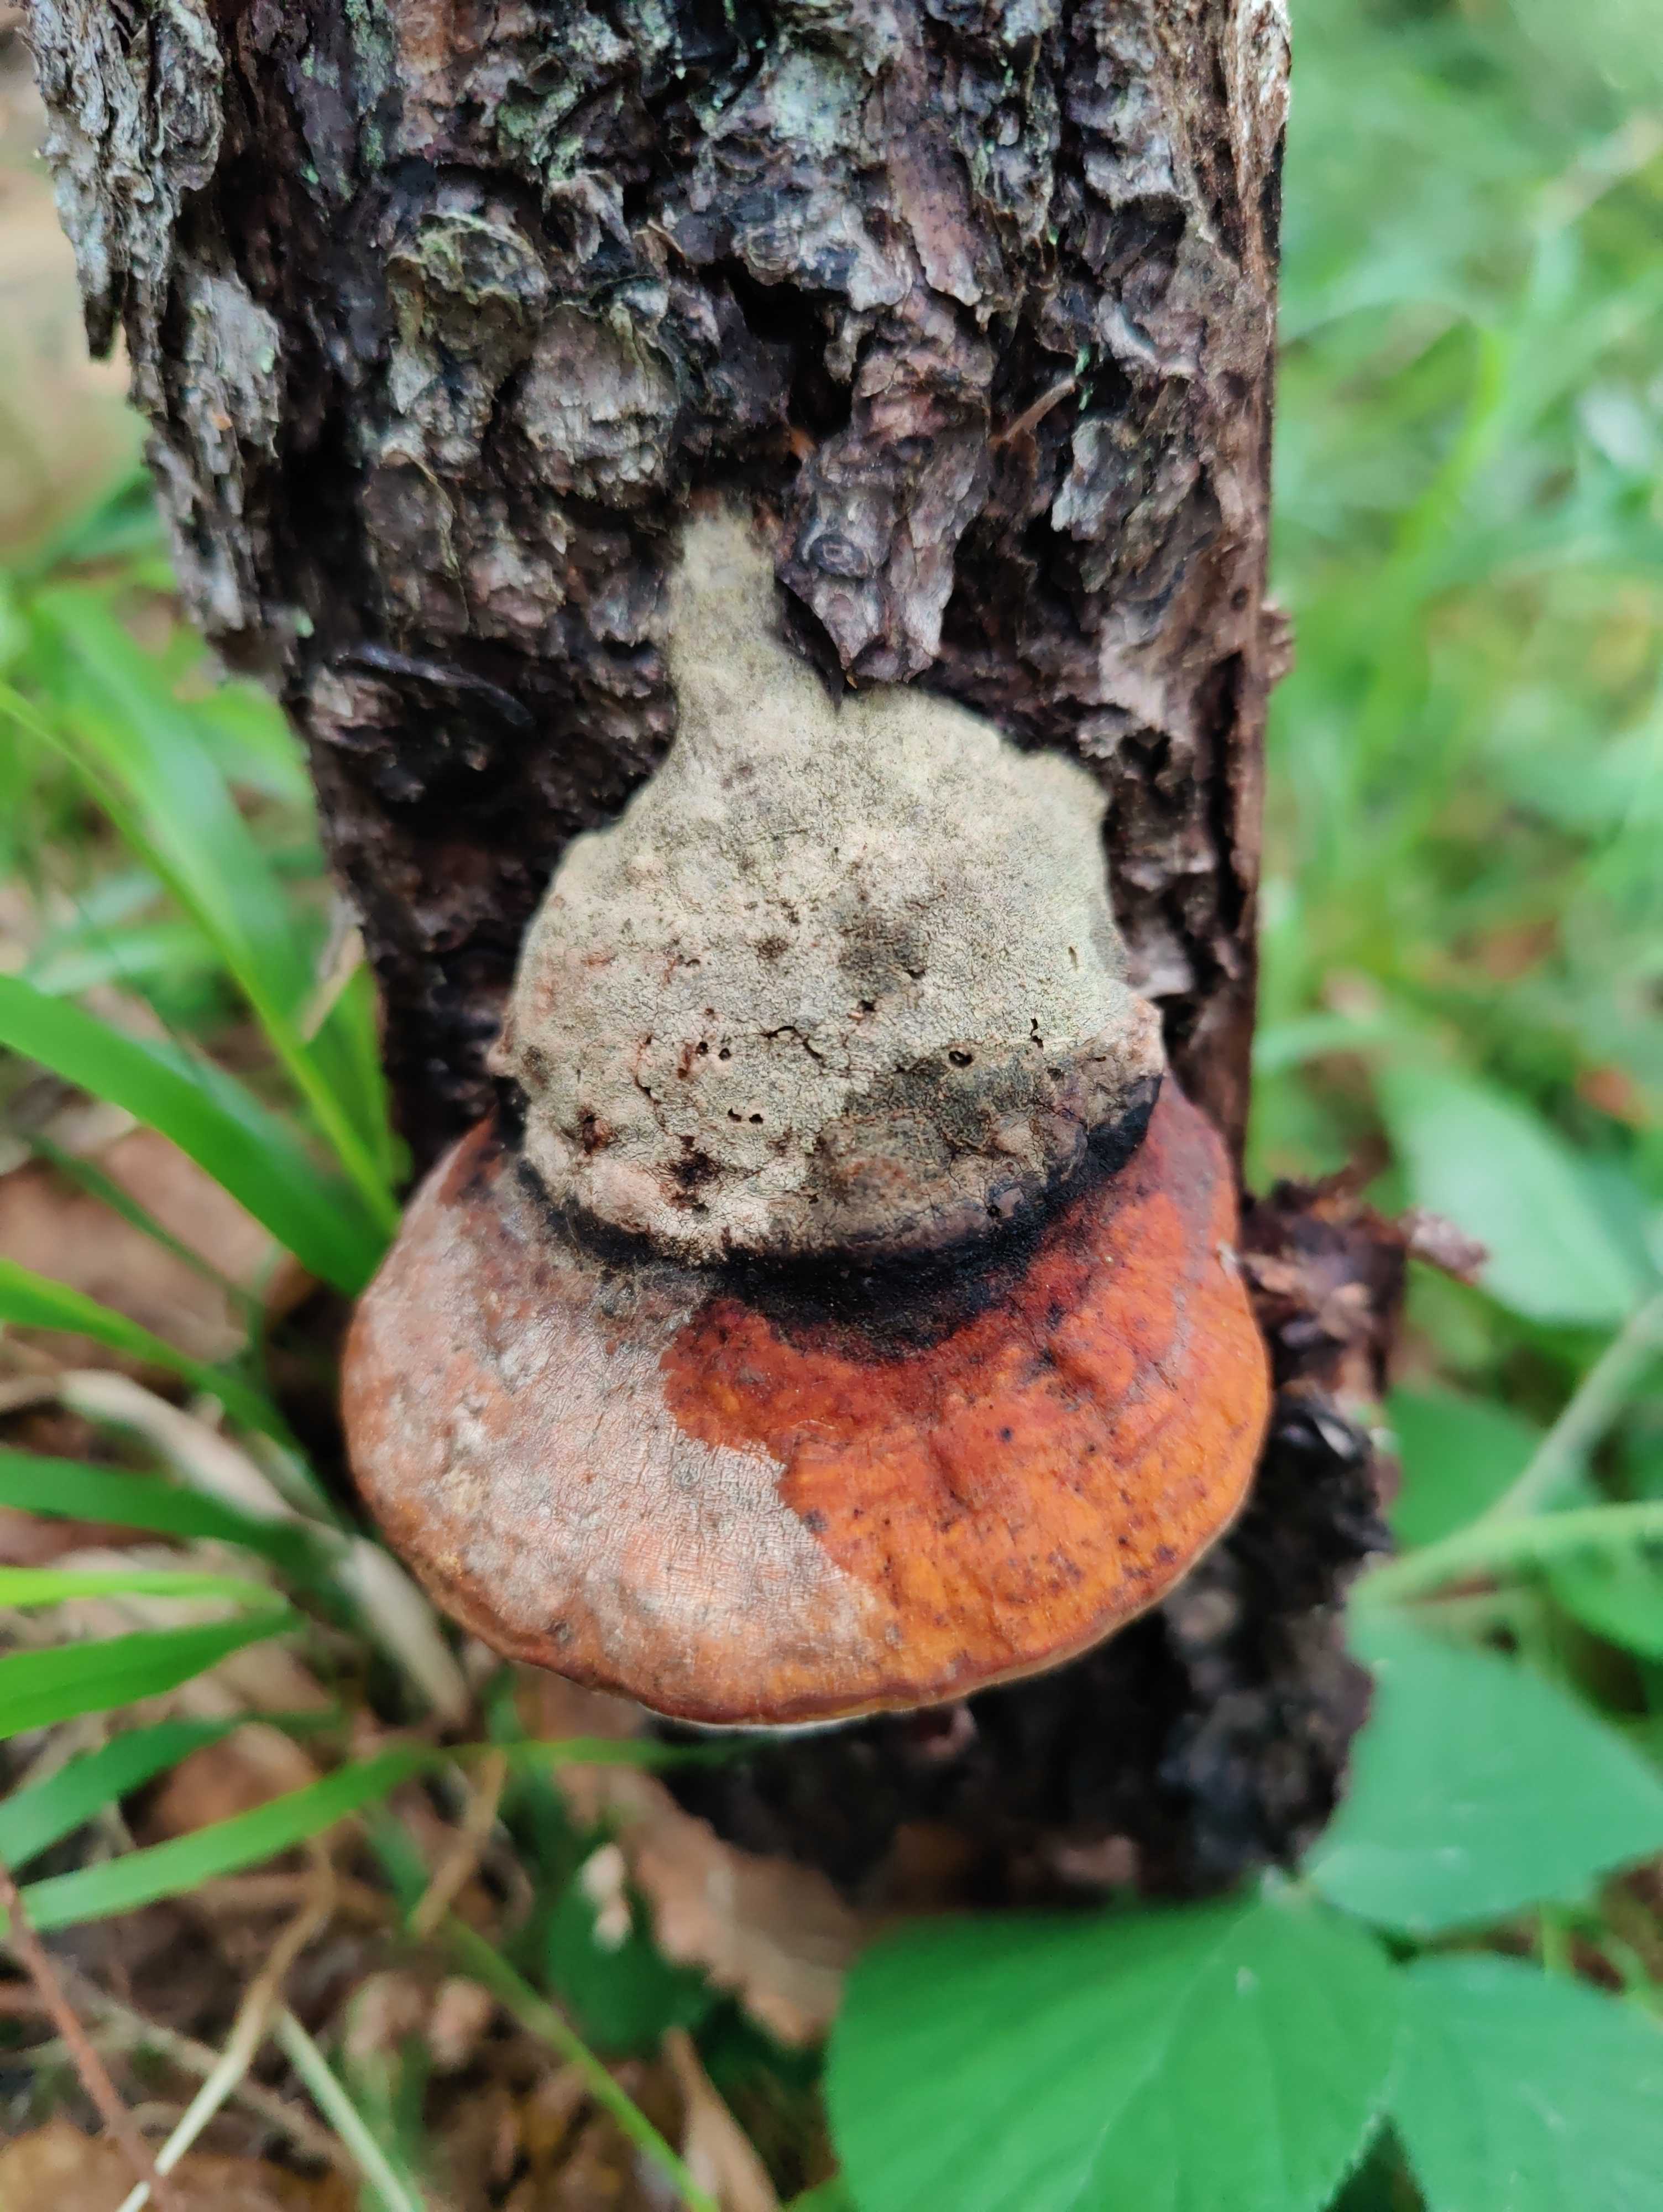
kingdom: Fungi
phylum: Basidiomycota
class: Agaricomycetes
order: Polyporales
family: Fomitopsidaceae
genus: Fomitopsis
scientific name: Fomitopsis pinicola
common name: randbæltet hovporesvamp
